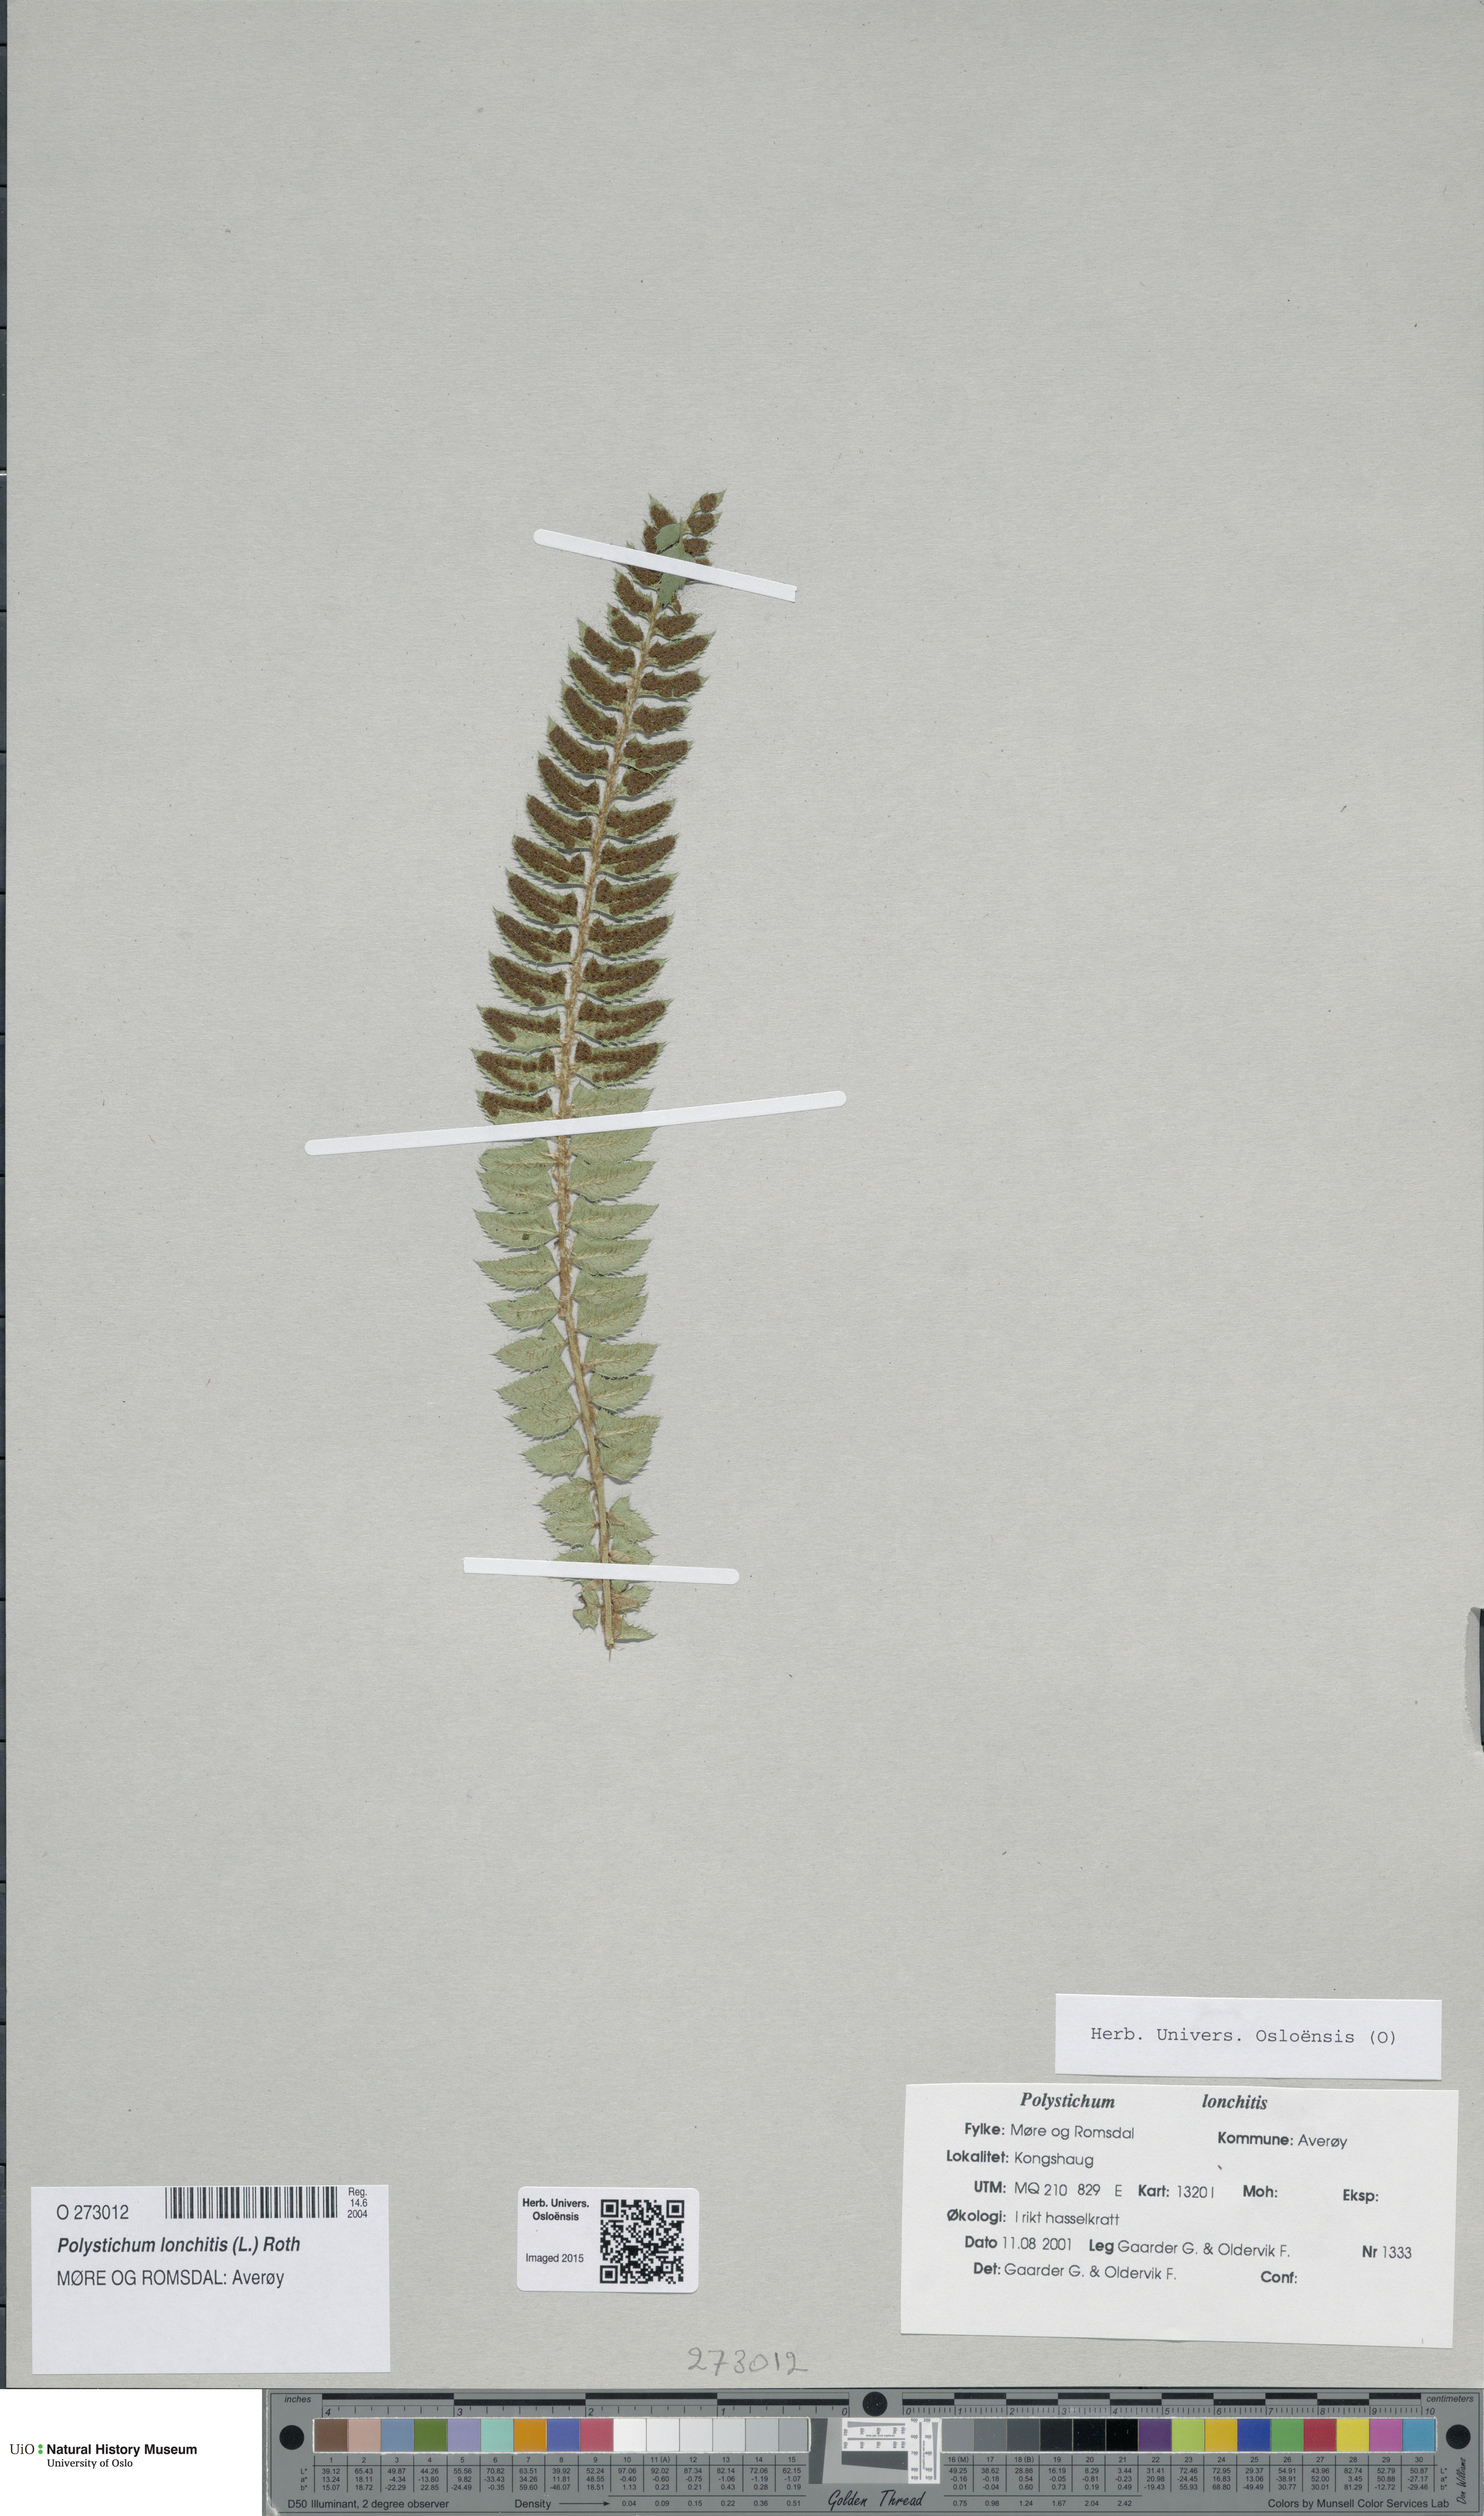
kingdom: Plantae
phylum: Tracheophyta
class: Polypodiopsida
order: Polypodiales
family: Dryopteridaceae
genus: Polystichum
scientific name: Polystichum lonchitis
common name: Holly fern
